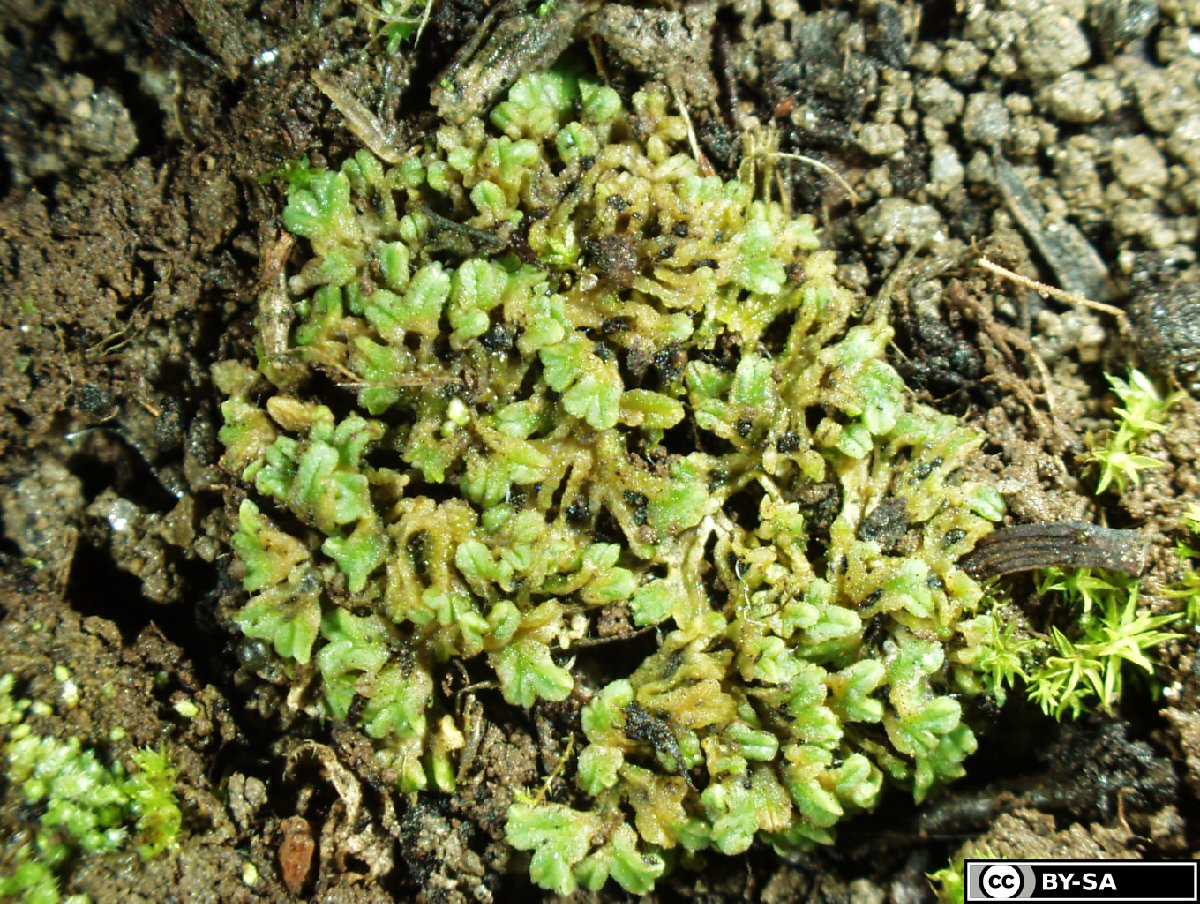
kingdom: Plantae
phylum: Marchantiophyta
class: Marchantiopsida
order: Marchantiales
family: Ricciaceae
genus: Riccia
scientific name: Riccia sorocarpa
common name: Common crystalwort
